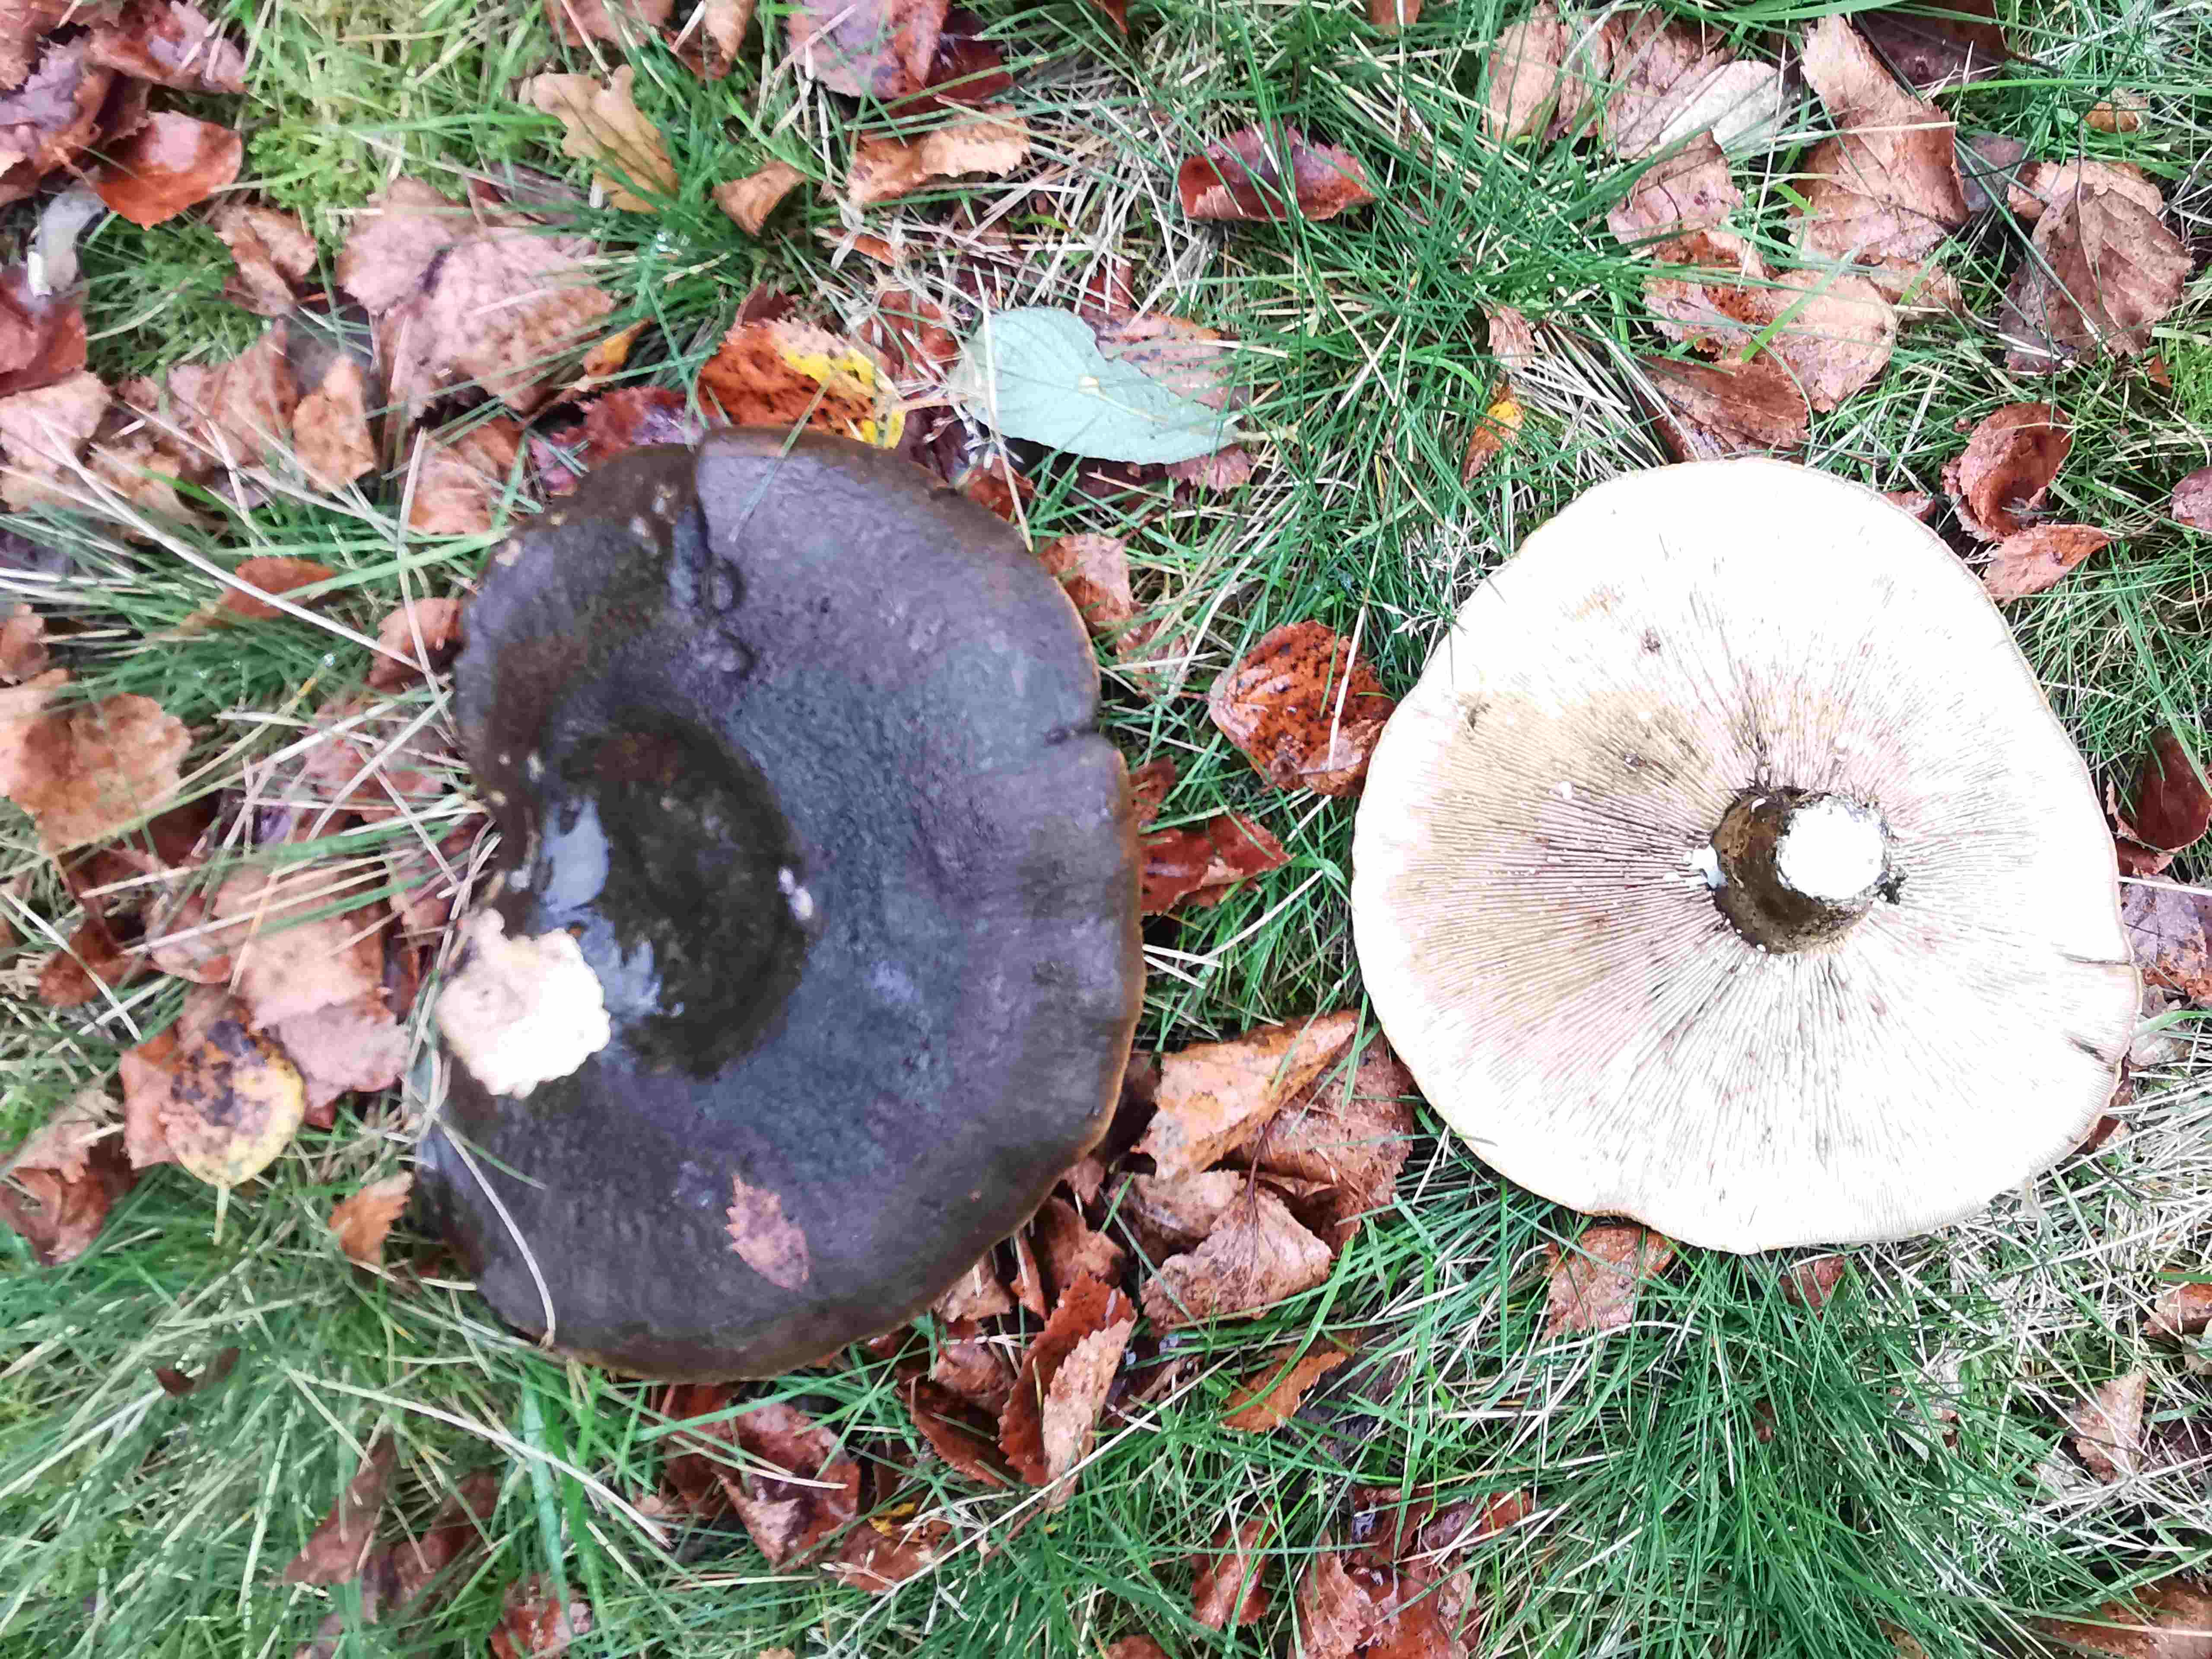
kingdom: Fungi
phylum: Basidiomycota
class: Agaricomycetes
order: Russulales
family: Russulaceae
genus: Lactarius
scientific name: Lactarius necator
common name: manddraber-mælkehat
